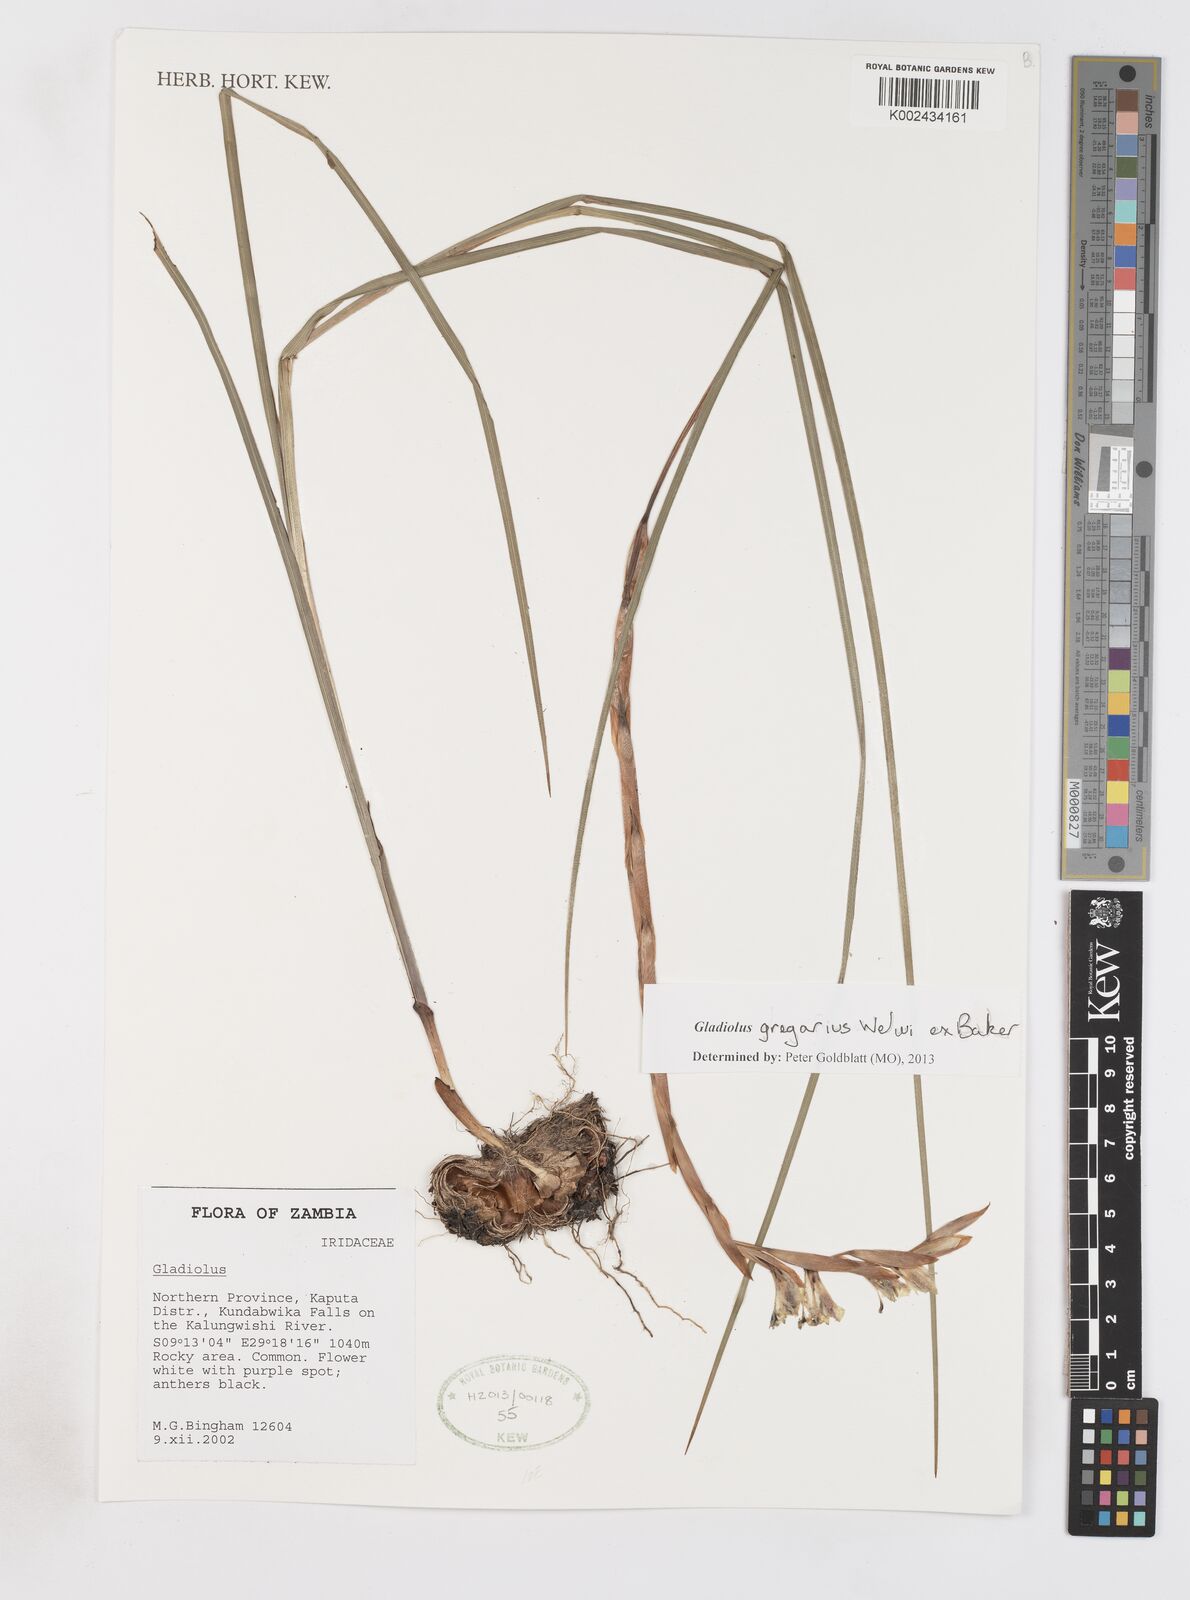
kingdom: Plantae
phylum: Tracheophyta
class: Liliopsida
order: Asparagales
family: Iridaceae
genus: Gladiolus
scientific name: Gladiolus gregarius
